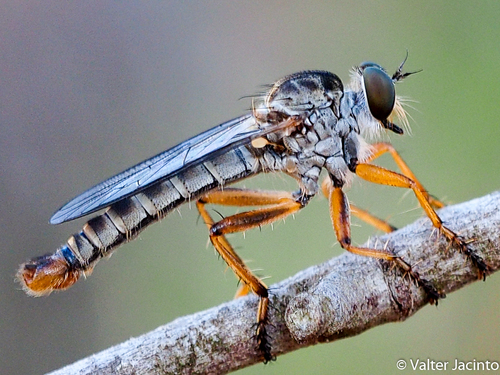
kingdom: Animalia
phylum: Arthropoda
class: Insecta
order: Diptera
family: Asilidae
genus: Aneomochtherus
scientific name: Aneomochtherus lepidus
